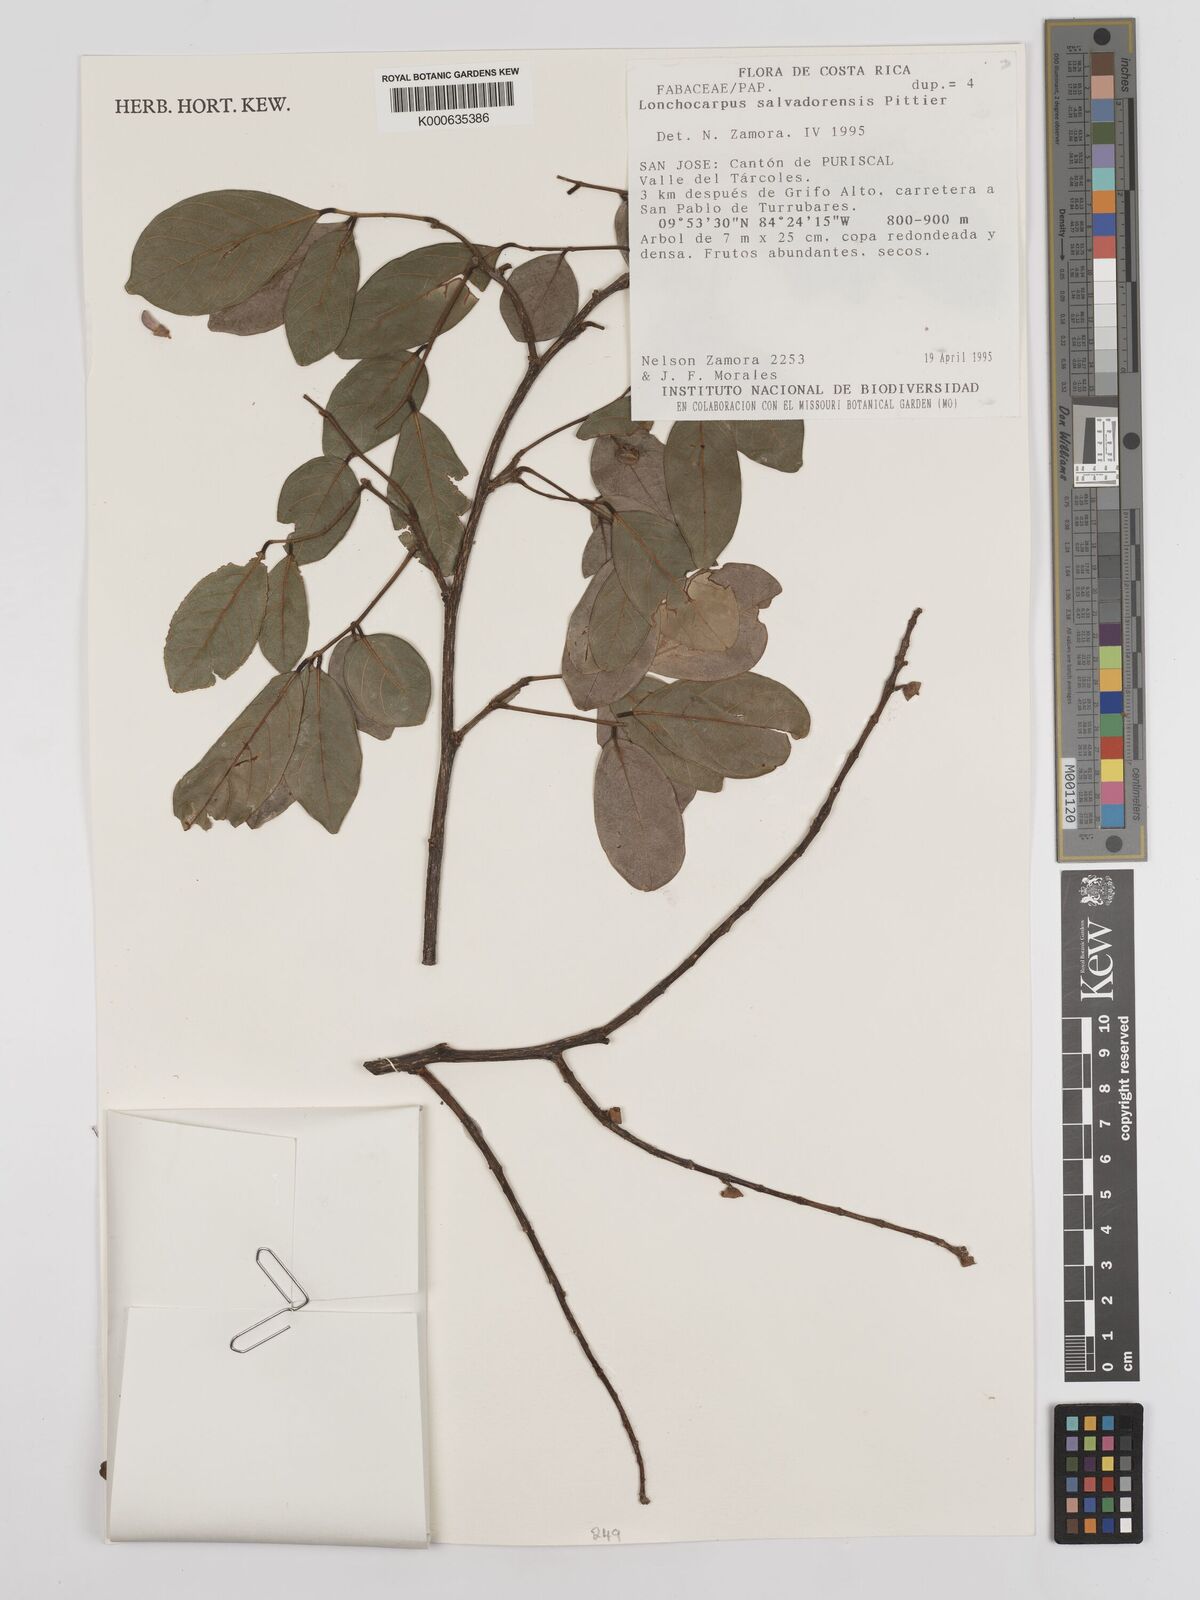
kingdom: Plantae
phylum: Tracheophyta
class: Magnoliopsida
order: Fabales
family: Fabaceae
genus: Lonchocarpus
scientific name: Lonchocarpus salvadorensis
